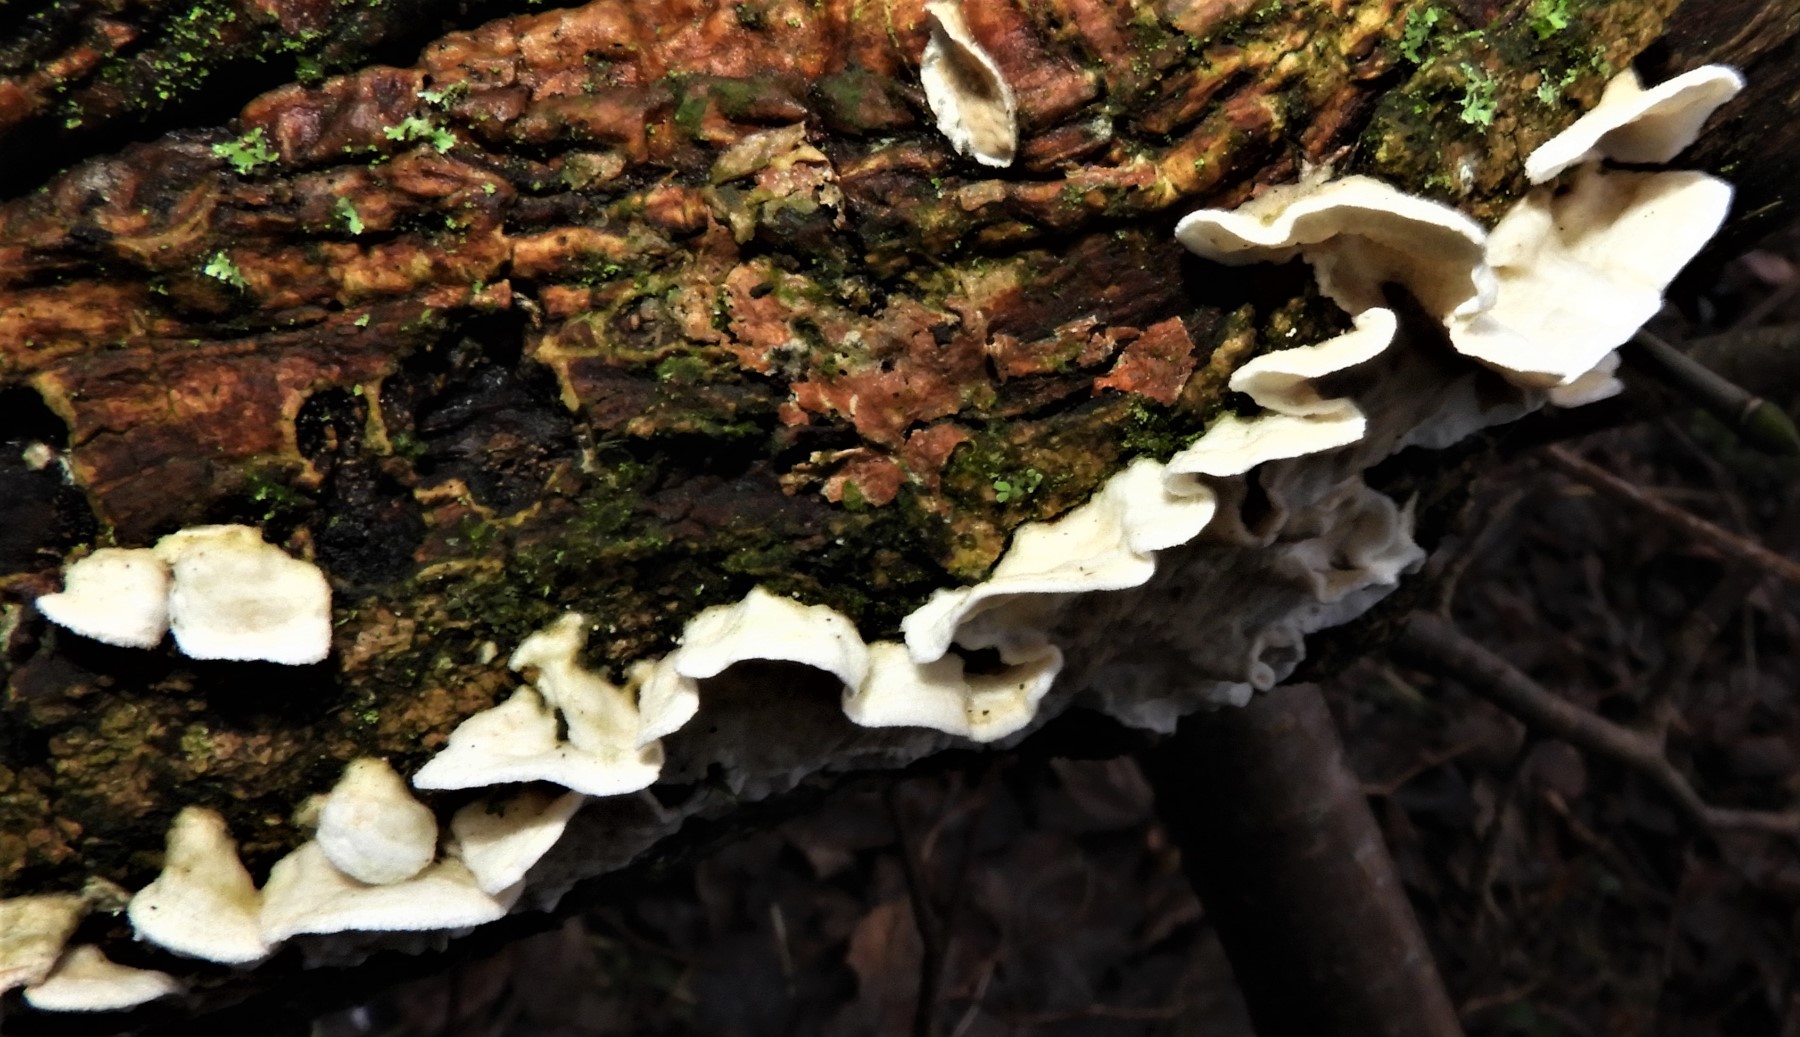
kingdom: Fungi
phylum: Basidiomycota
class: Agaricomycetes
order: Polyporales
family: Irpicaceae
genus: Byssomerulius
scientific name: Byssomerulius corium
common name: læder-åresvamp
